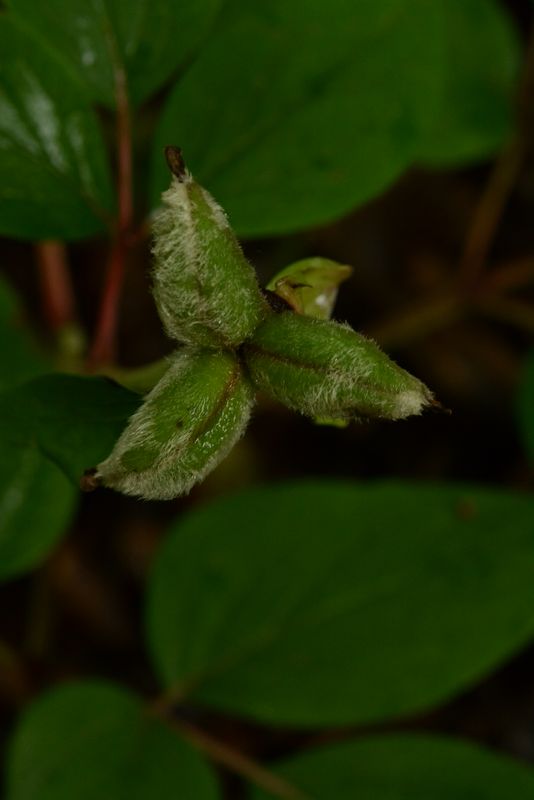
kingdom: Plantae
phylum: Tracheophyta
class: Magnoliopsida
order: Saxifragales
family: Paeoniaceae
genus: Paeonia
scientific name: Paeonia caucasica
